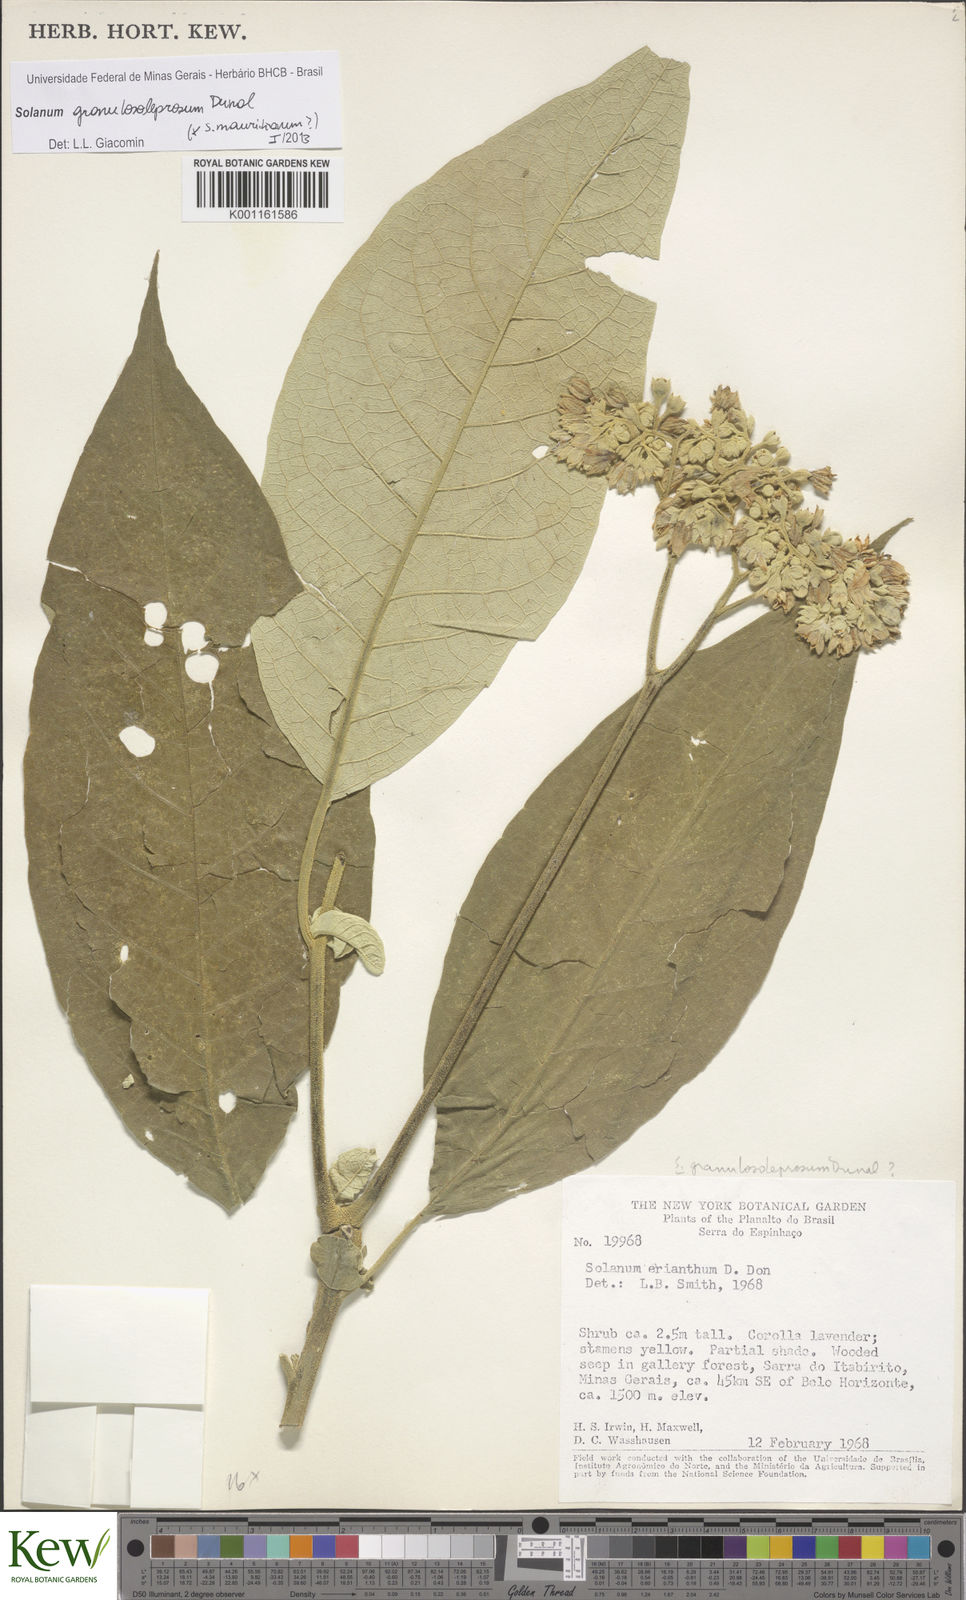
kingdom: Plantae
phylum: Tracheophyta
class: Magnoliopsida
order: Solanales
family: Solanaceae
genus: Solanum
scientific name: Solanum granulosoleprosum
